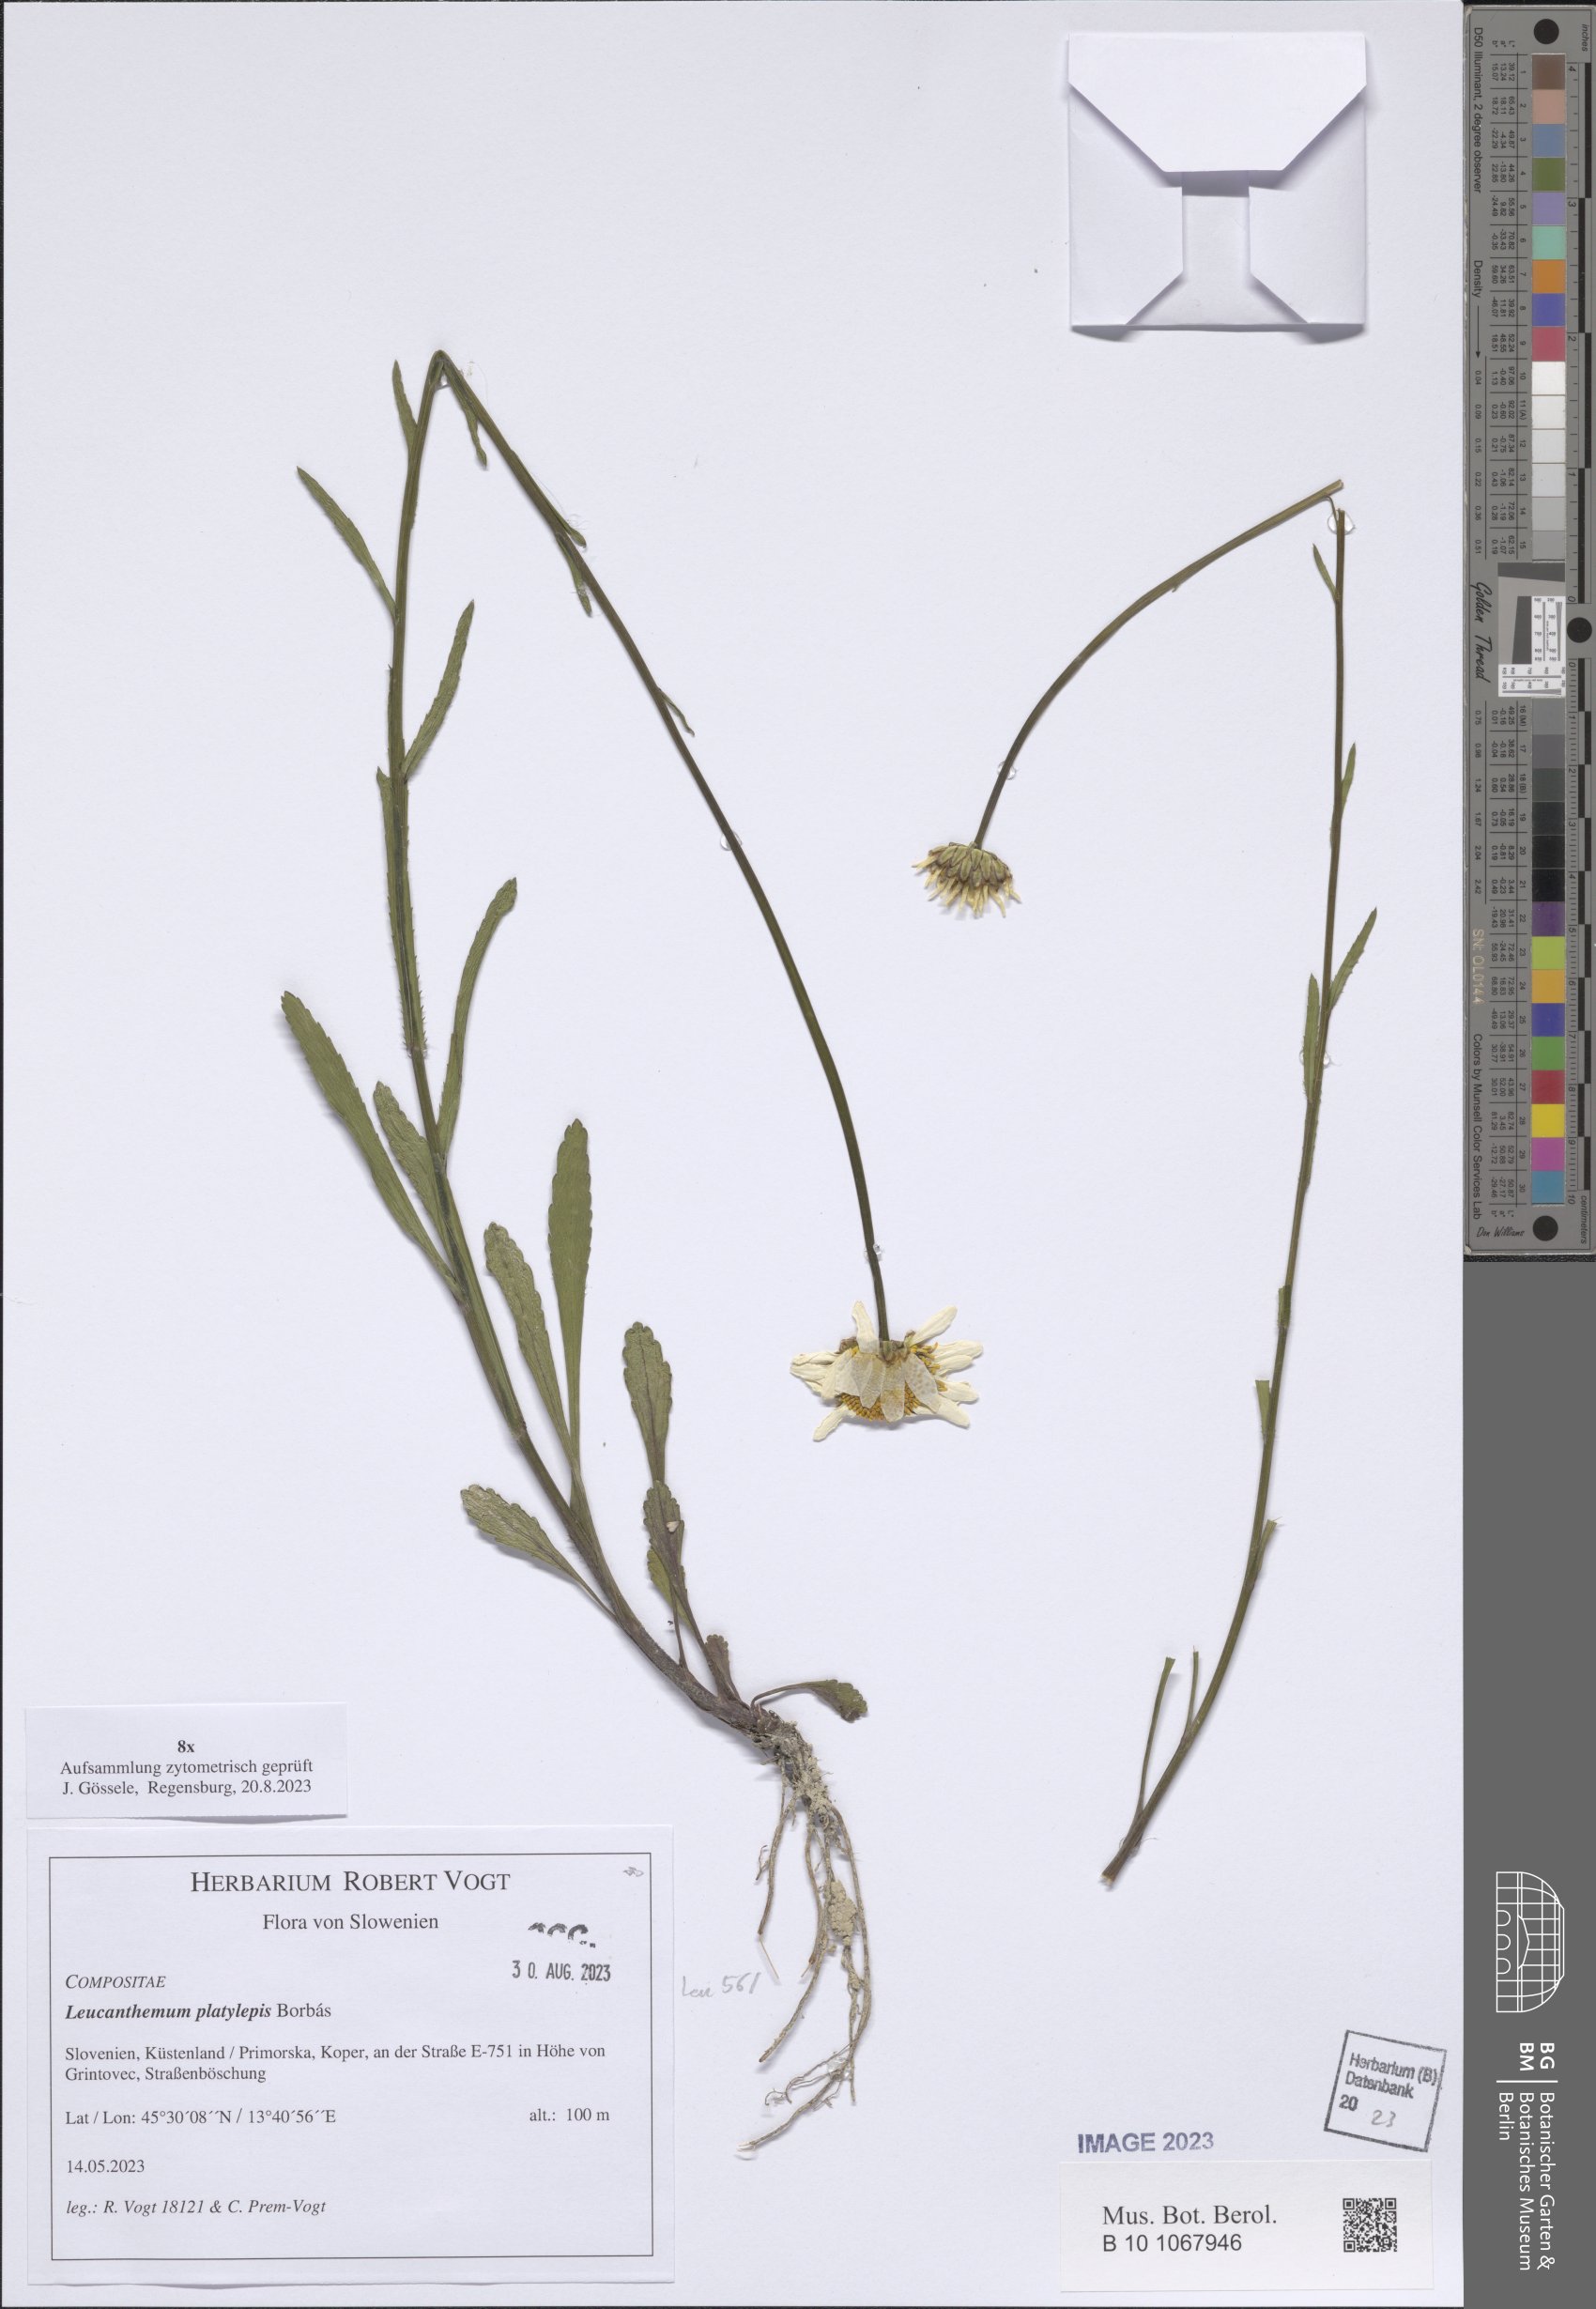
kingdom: Plantae
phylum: Tracheophyta
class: Magnoliopsida
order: Asterales
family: Asteraceae
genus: Leucanthemum
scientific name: Leucanthemum platylepis
